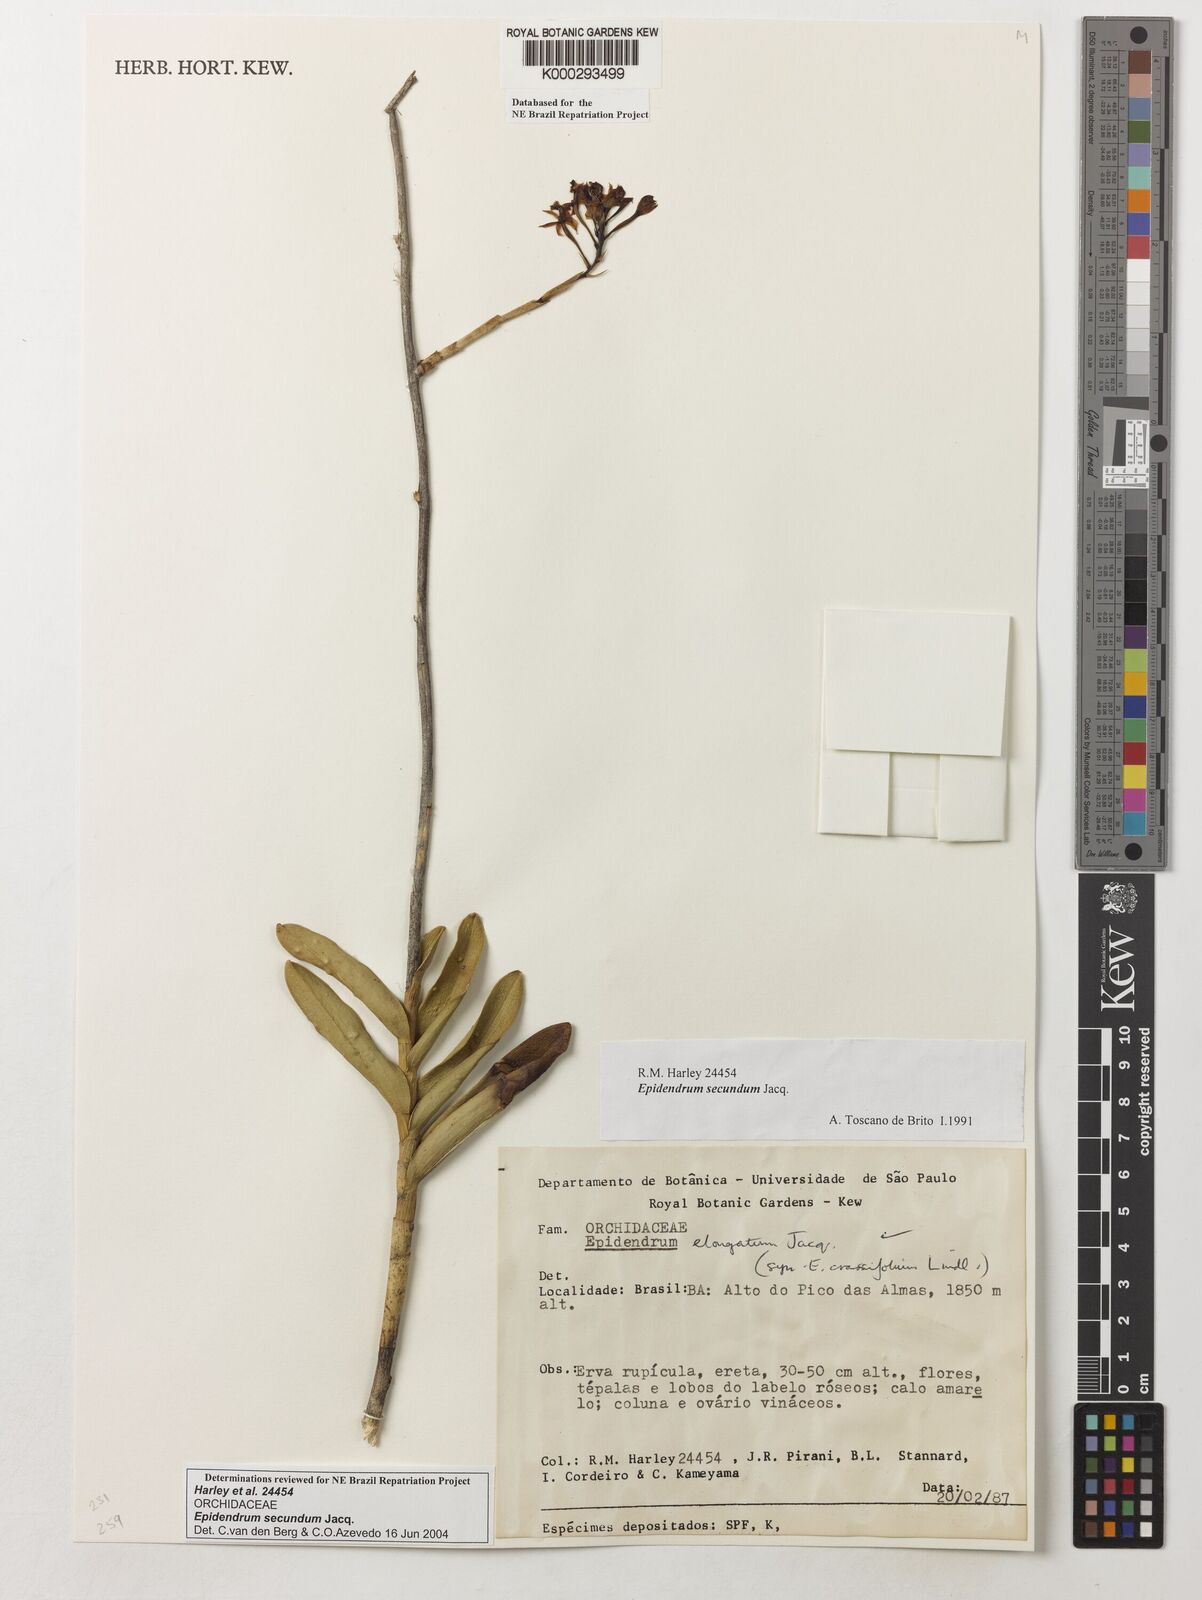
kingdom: Plantae
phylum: Tracheophyta
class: Liliopsida
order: Asparagales
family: Orchidaceae
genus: Epidendrum
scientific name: Epidendrum secundum
